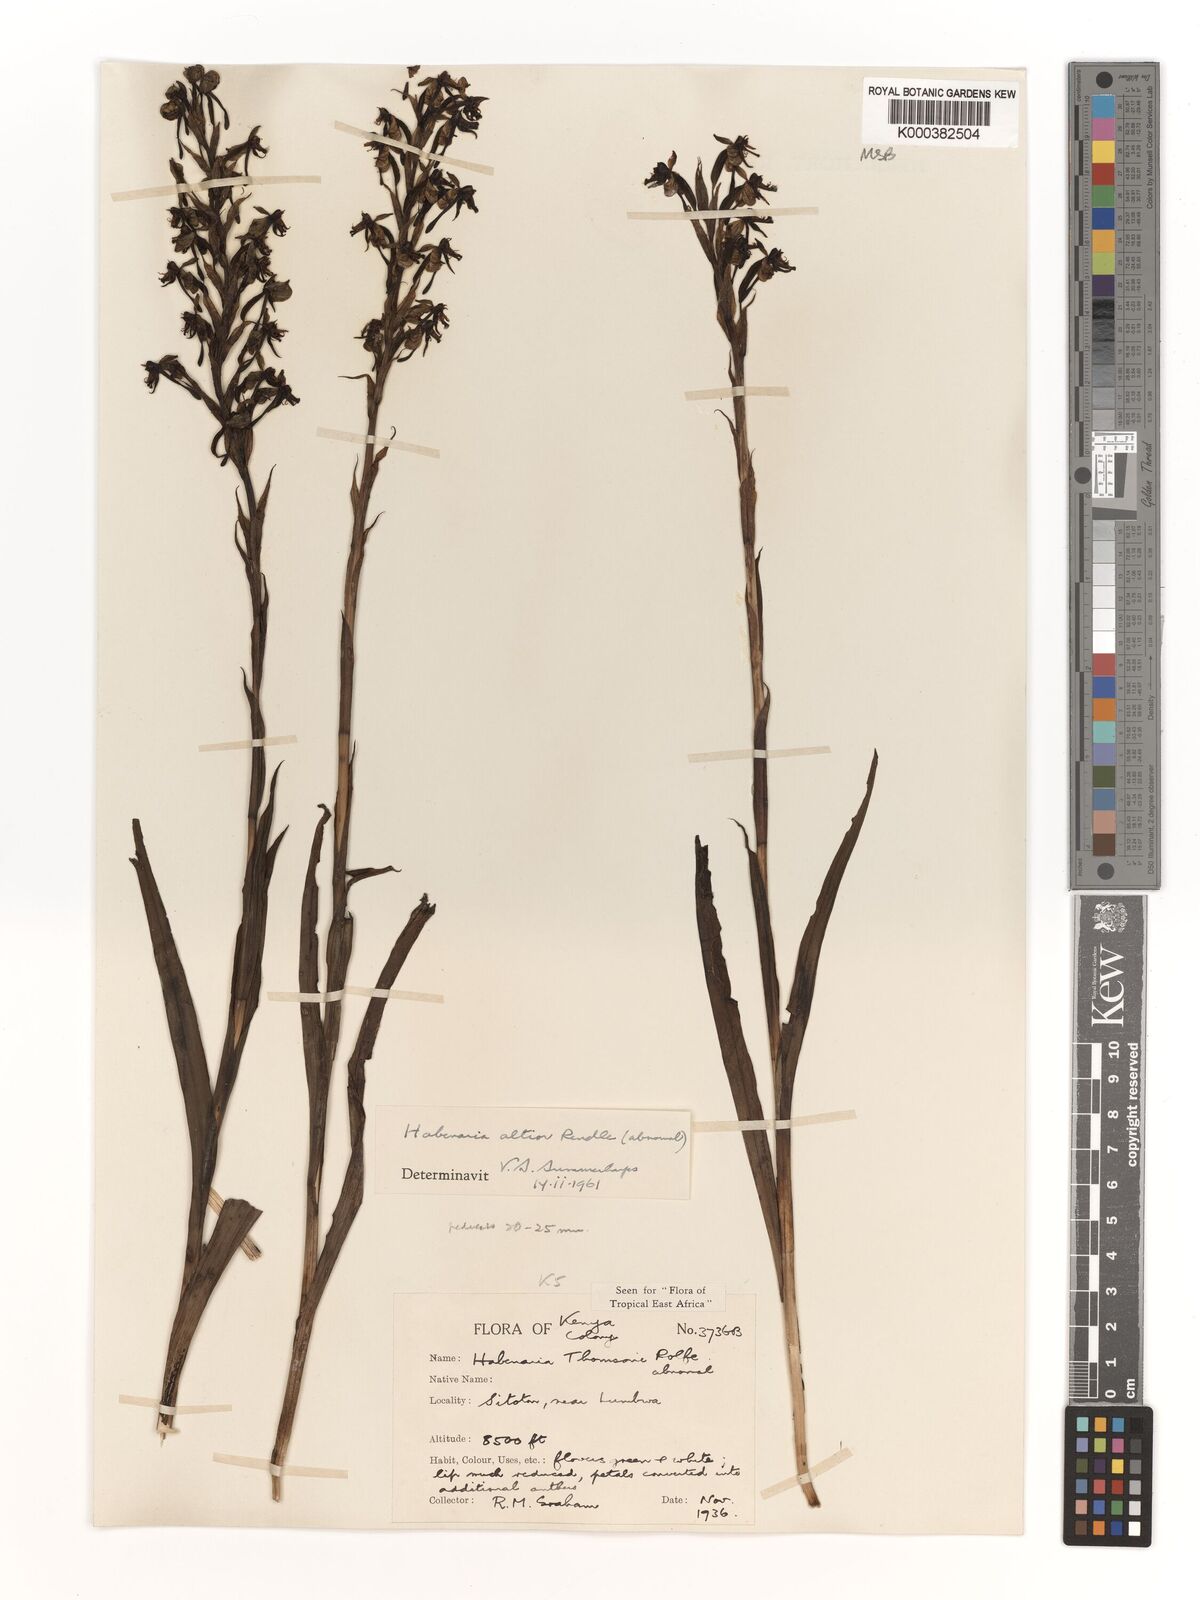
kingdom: Plantae
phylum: Tracheophyta
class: Liliopsida
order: Asparagales
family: Orchidaceae
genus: Habenaria
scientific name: Habenaria altior
